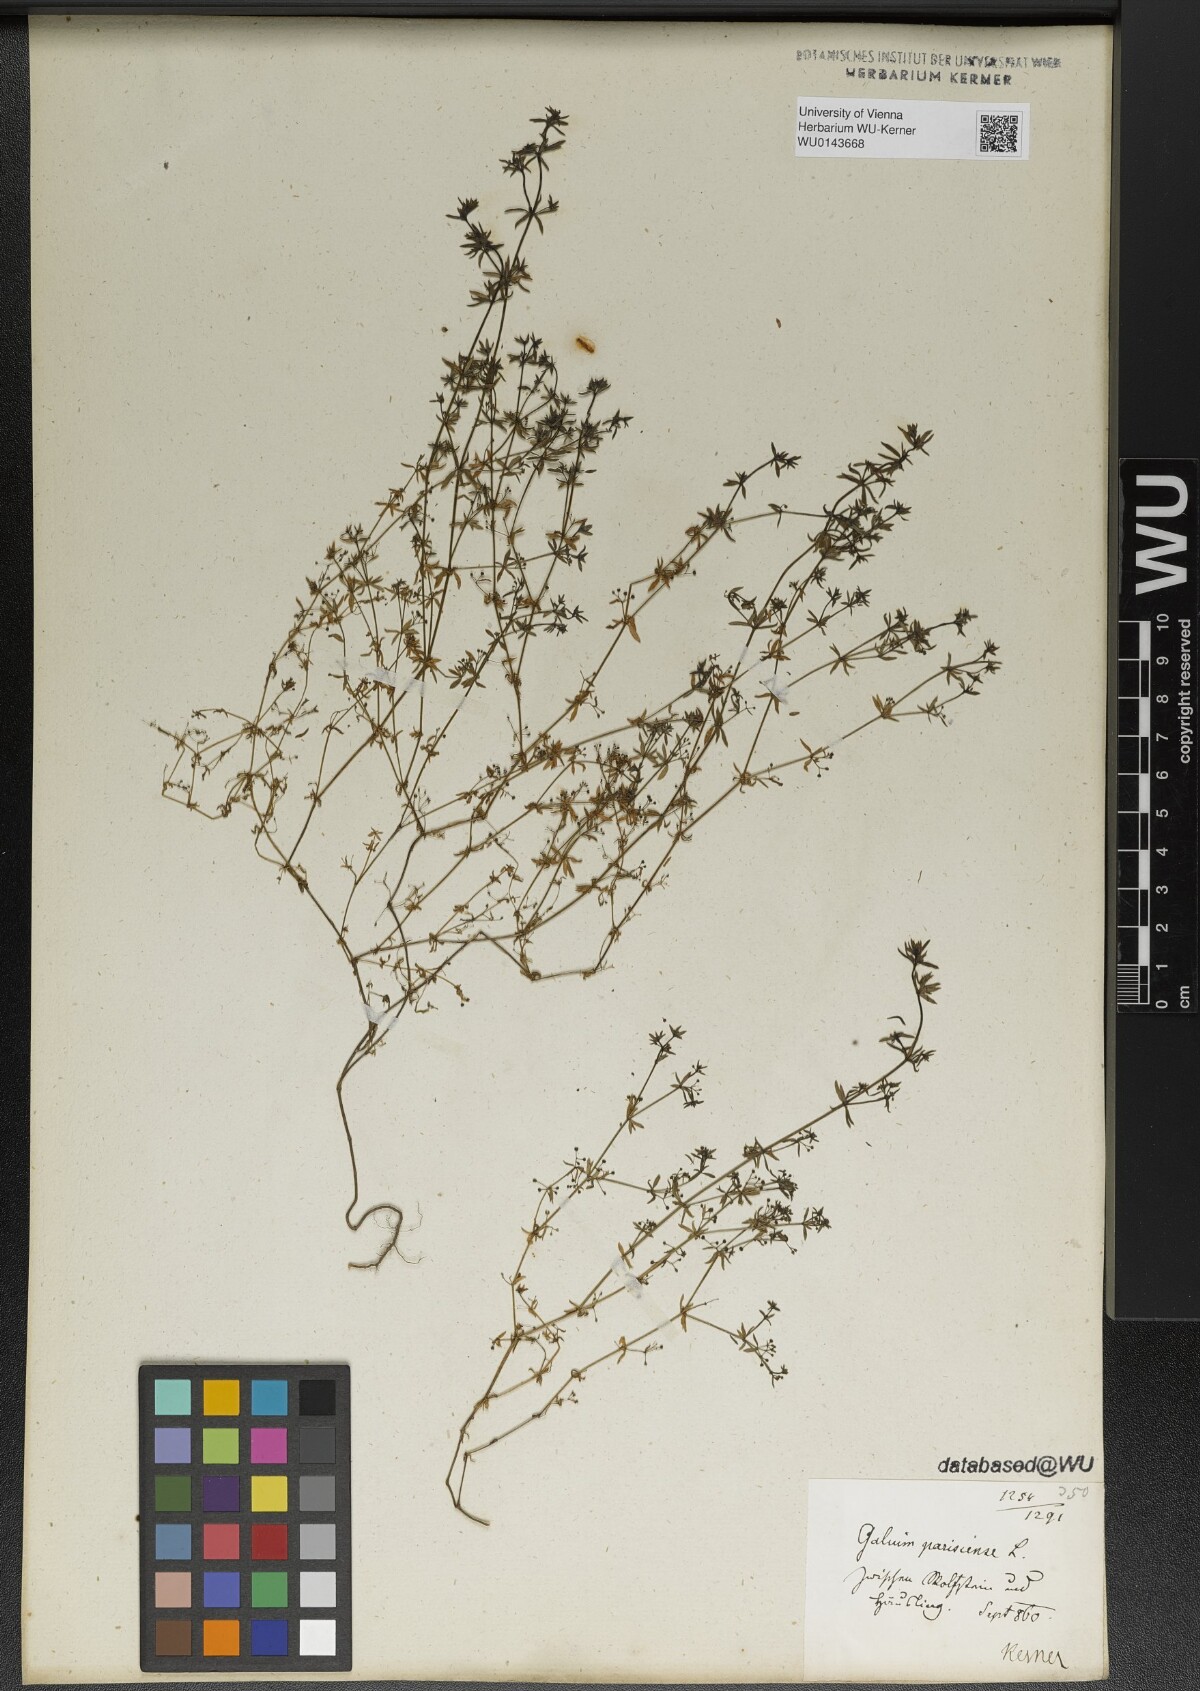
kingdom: Plantae
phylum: Tracheophyta
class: Magnoliopsida
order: Gentianales
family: Rubiaceae
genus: Galium
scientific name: Galium parisiense
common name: Wall bedstraw
